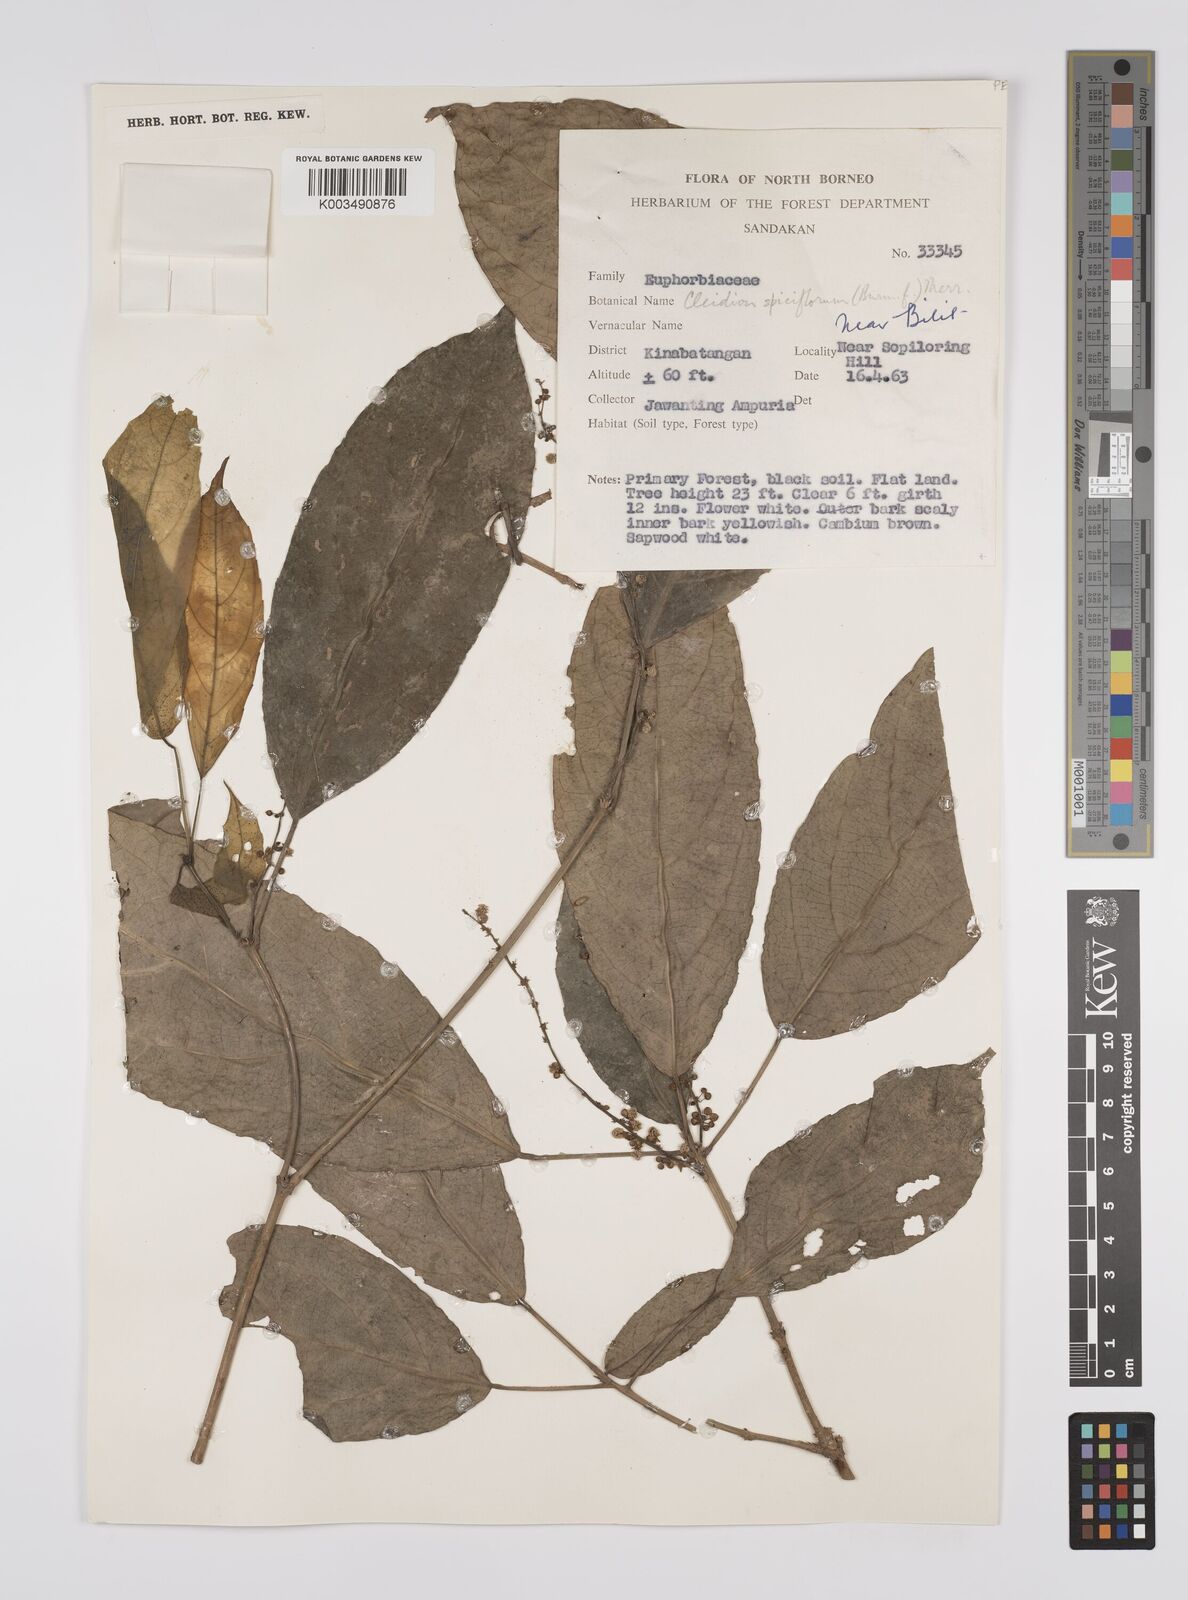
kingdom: Plantae
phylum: Tracheophyta
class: Magnoliopsida
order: Malpighiales
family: Euphorbiaceae
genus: Acalypha
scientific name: Acalypha spiciflora
